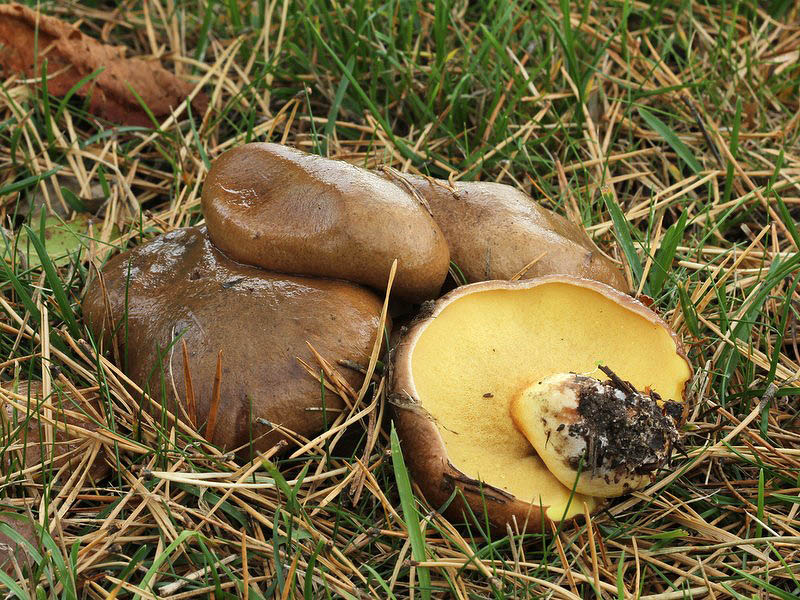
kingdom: Fungi
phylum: Basidiomycota
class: Agaricomycetes
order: Boletales
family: Suillaceae
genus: Suillus
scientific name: Suillus granulatus
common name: kornet slimrørhat
